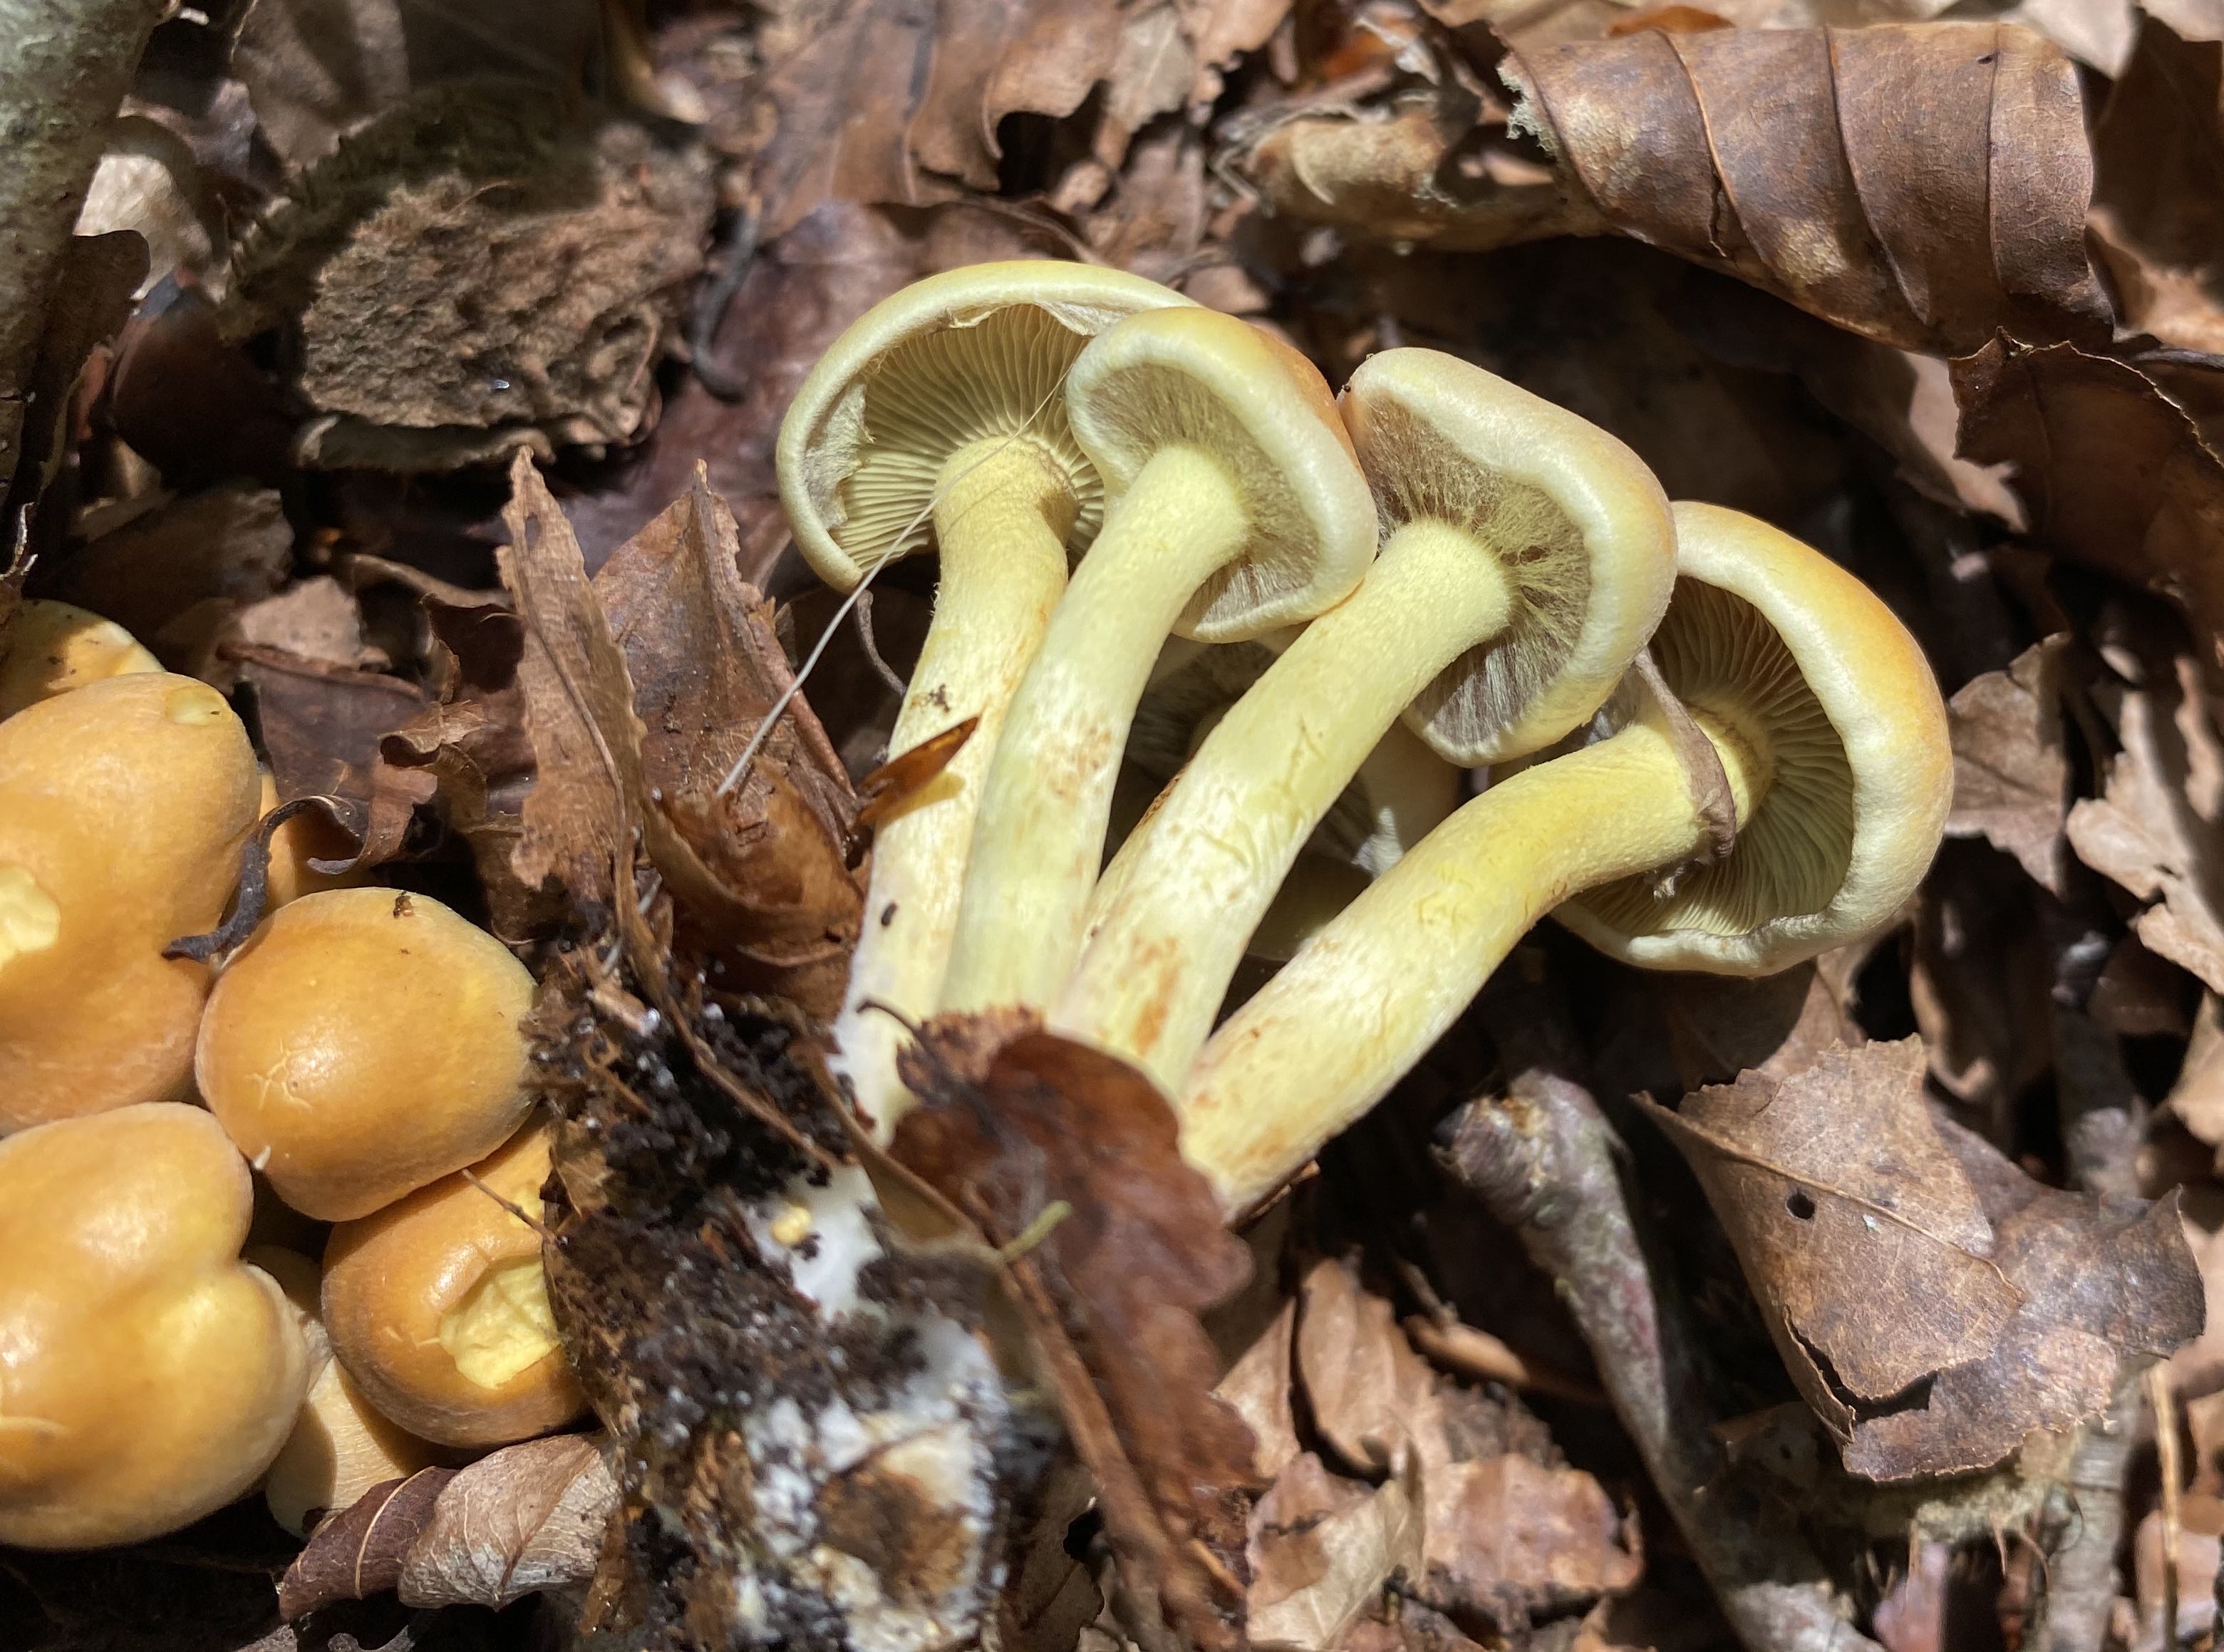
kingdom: Fungi
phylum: Basidiomycota
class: Agaricomycetes
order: Agaricales
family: Strophariaceae
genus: Hypholoma
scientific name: Hypholoma fasciculare
